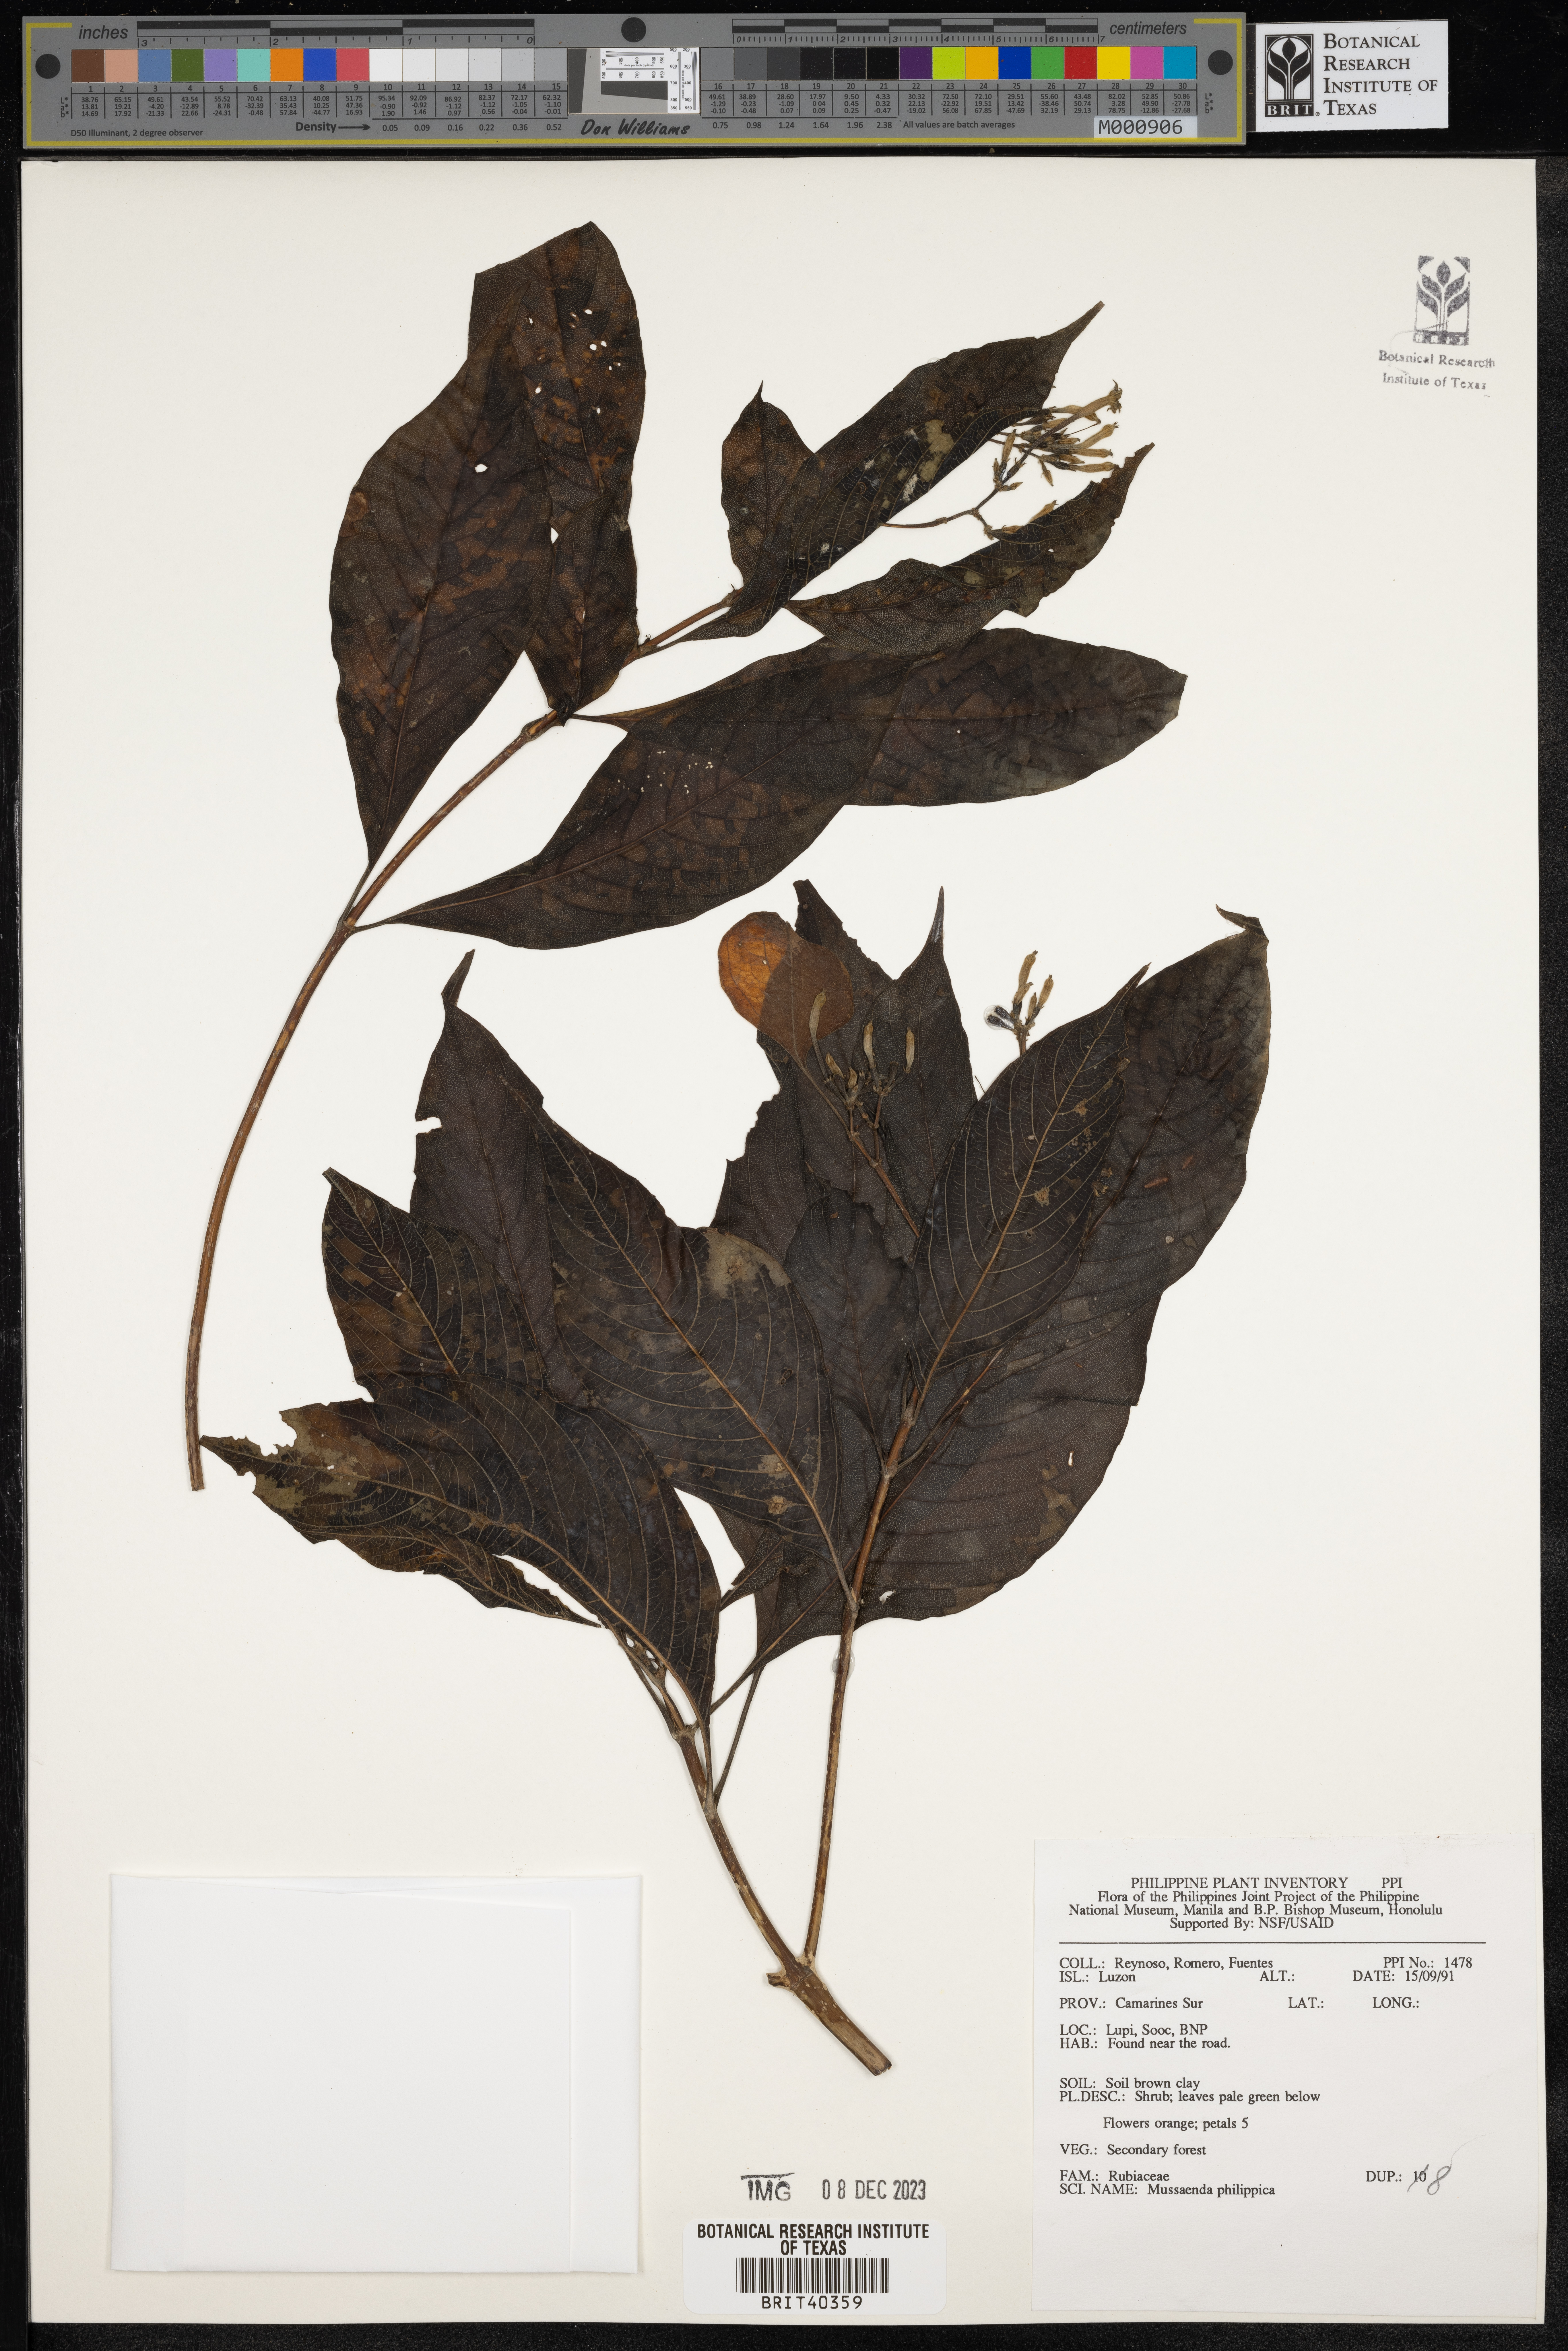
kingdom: Plantae
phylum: Tracheophyta
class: Magnoliopsida
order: Gentianales
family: Rubiaceae
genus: Mussaenda
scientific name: Mussaenda philippica
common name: Philippine mussaenda
